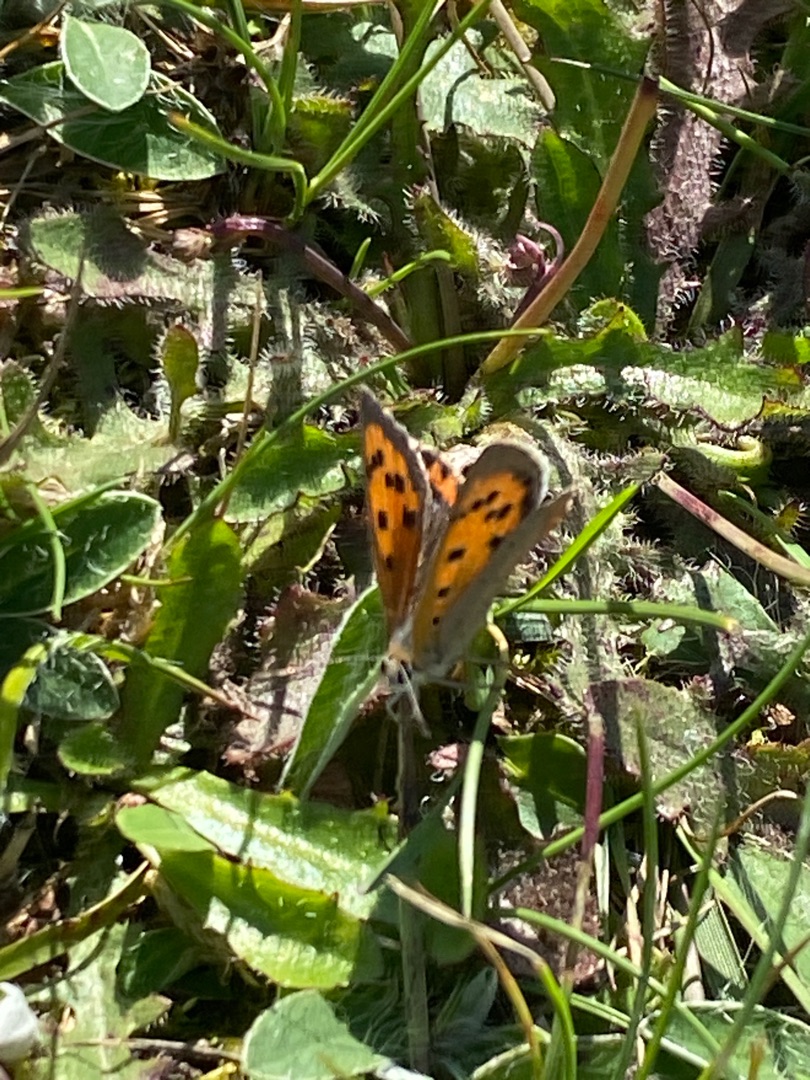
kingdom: Animalia
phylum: Arthropoda
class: Insecta
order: Lepidoptera
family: Lycaenidae
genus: Lycaena
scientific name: Lycaena phlaeas
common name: Lille ildfugl
